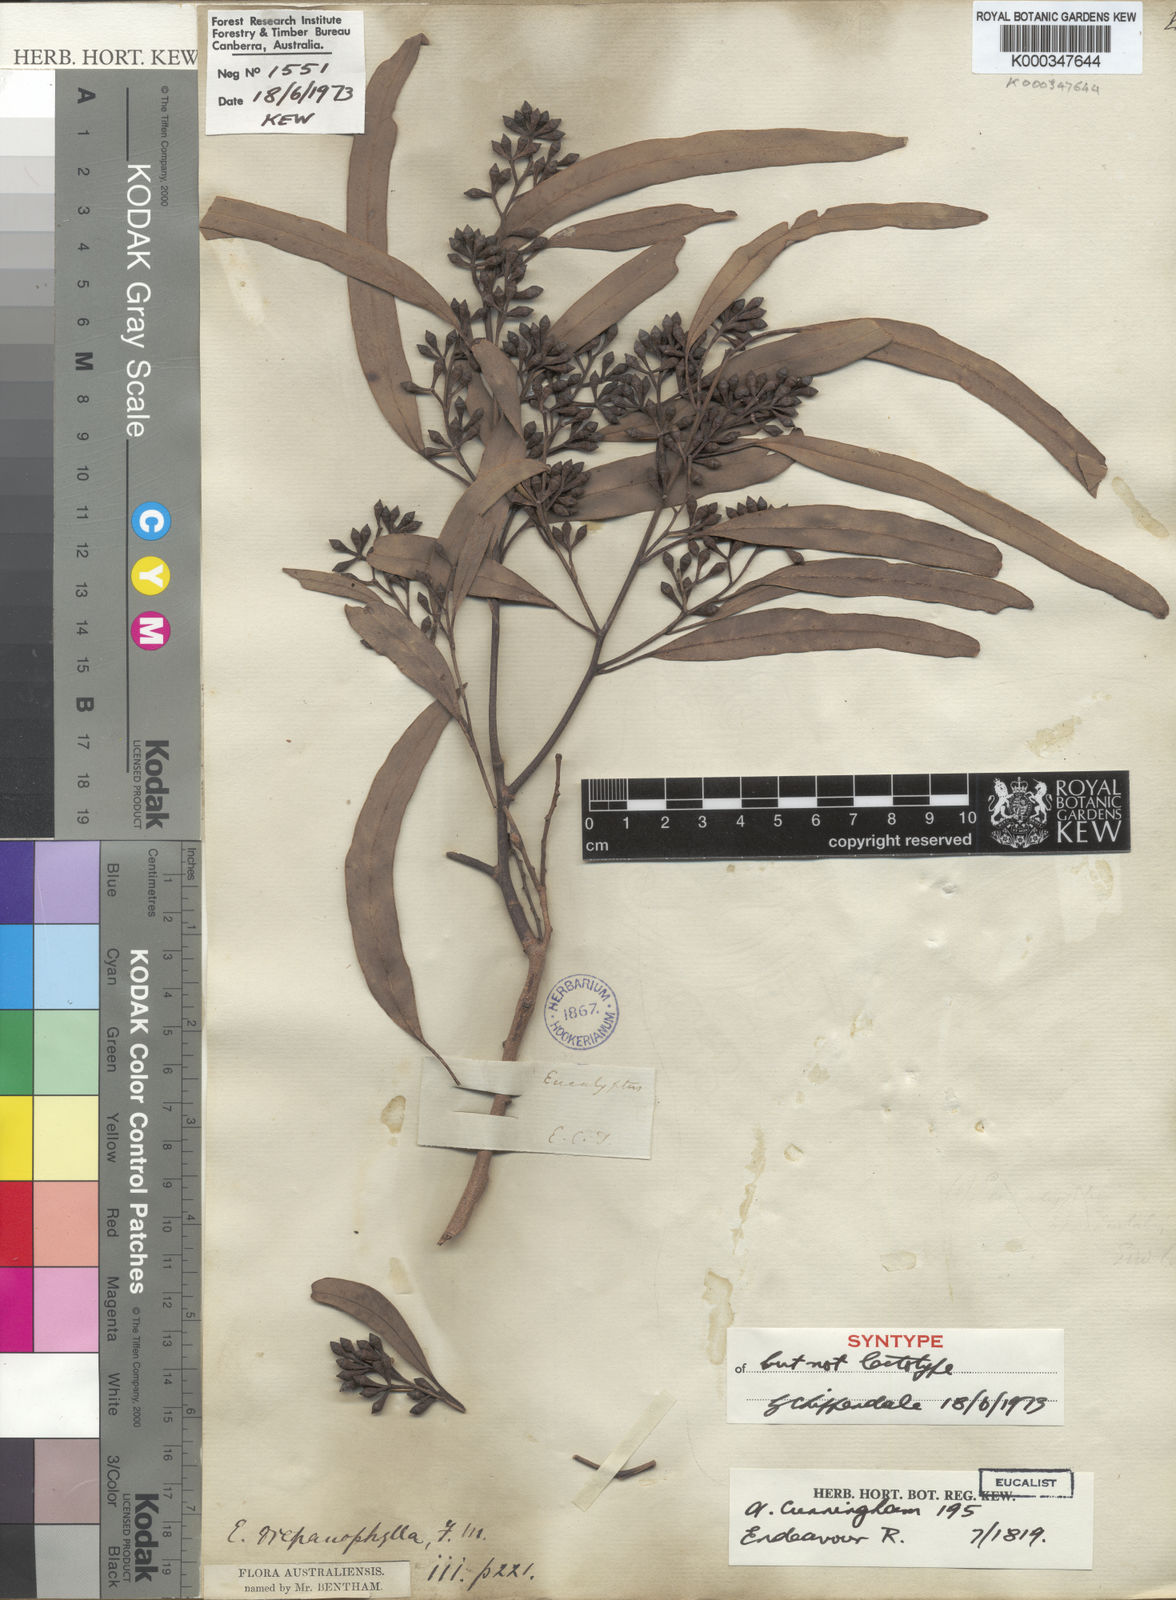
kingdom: Plantae
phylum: Tracheophyta
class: Magnoliopsida
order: Myrtales
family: Myrtaceae
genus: Eucalyptus
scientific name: Eucalyptus drepanophylla
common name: Queensland grey ironbark
